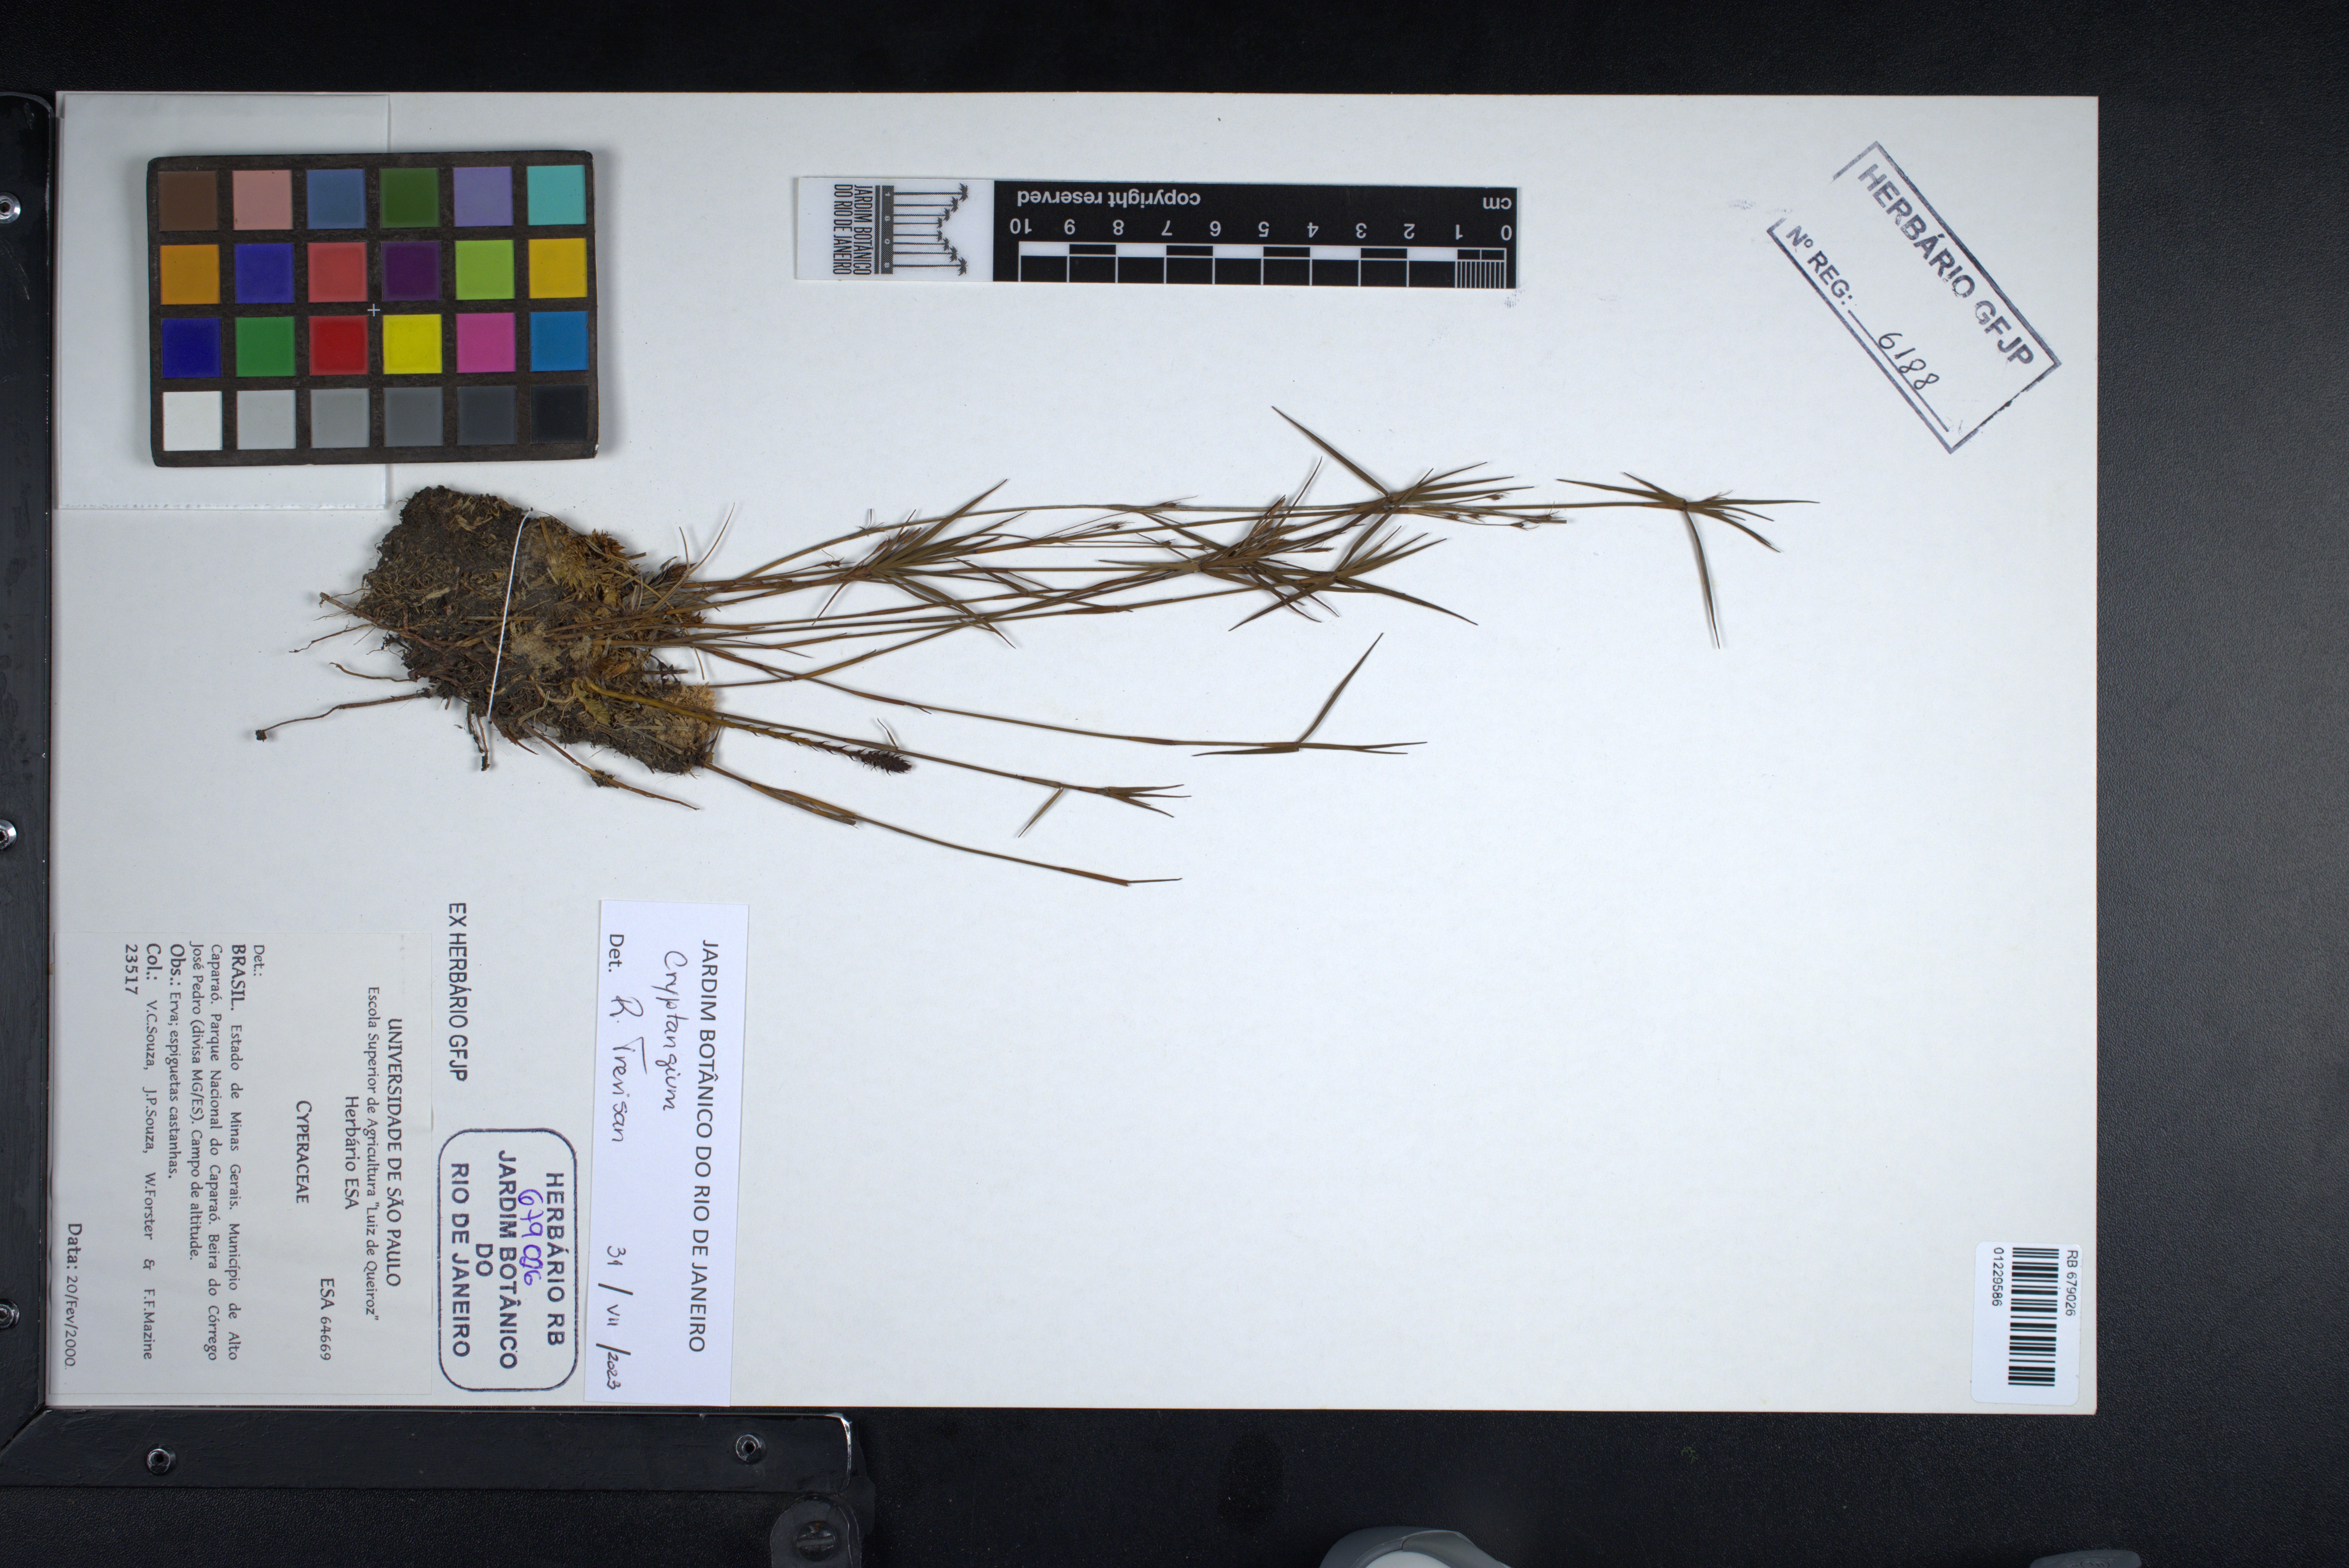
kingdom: Plantae
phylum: Tracheophyta
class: Liliopsida
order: Poales
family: Cyperaceae
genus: Cryptangium
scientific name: Cryptangium
